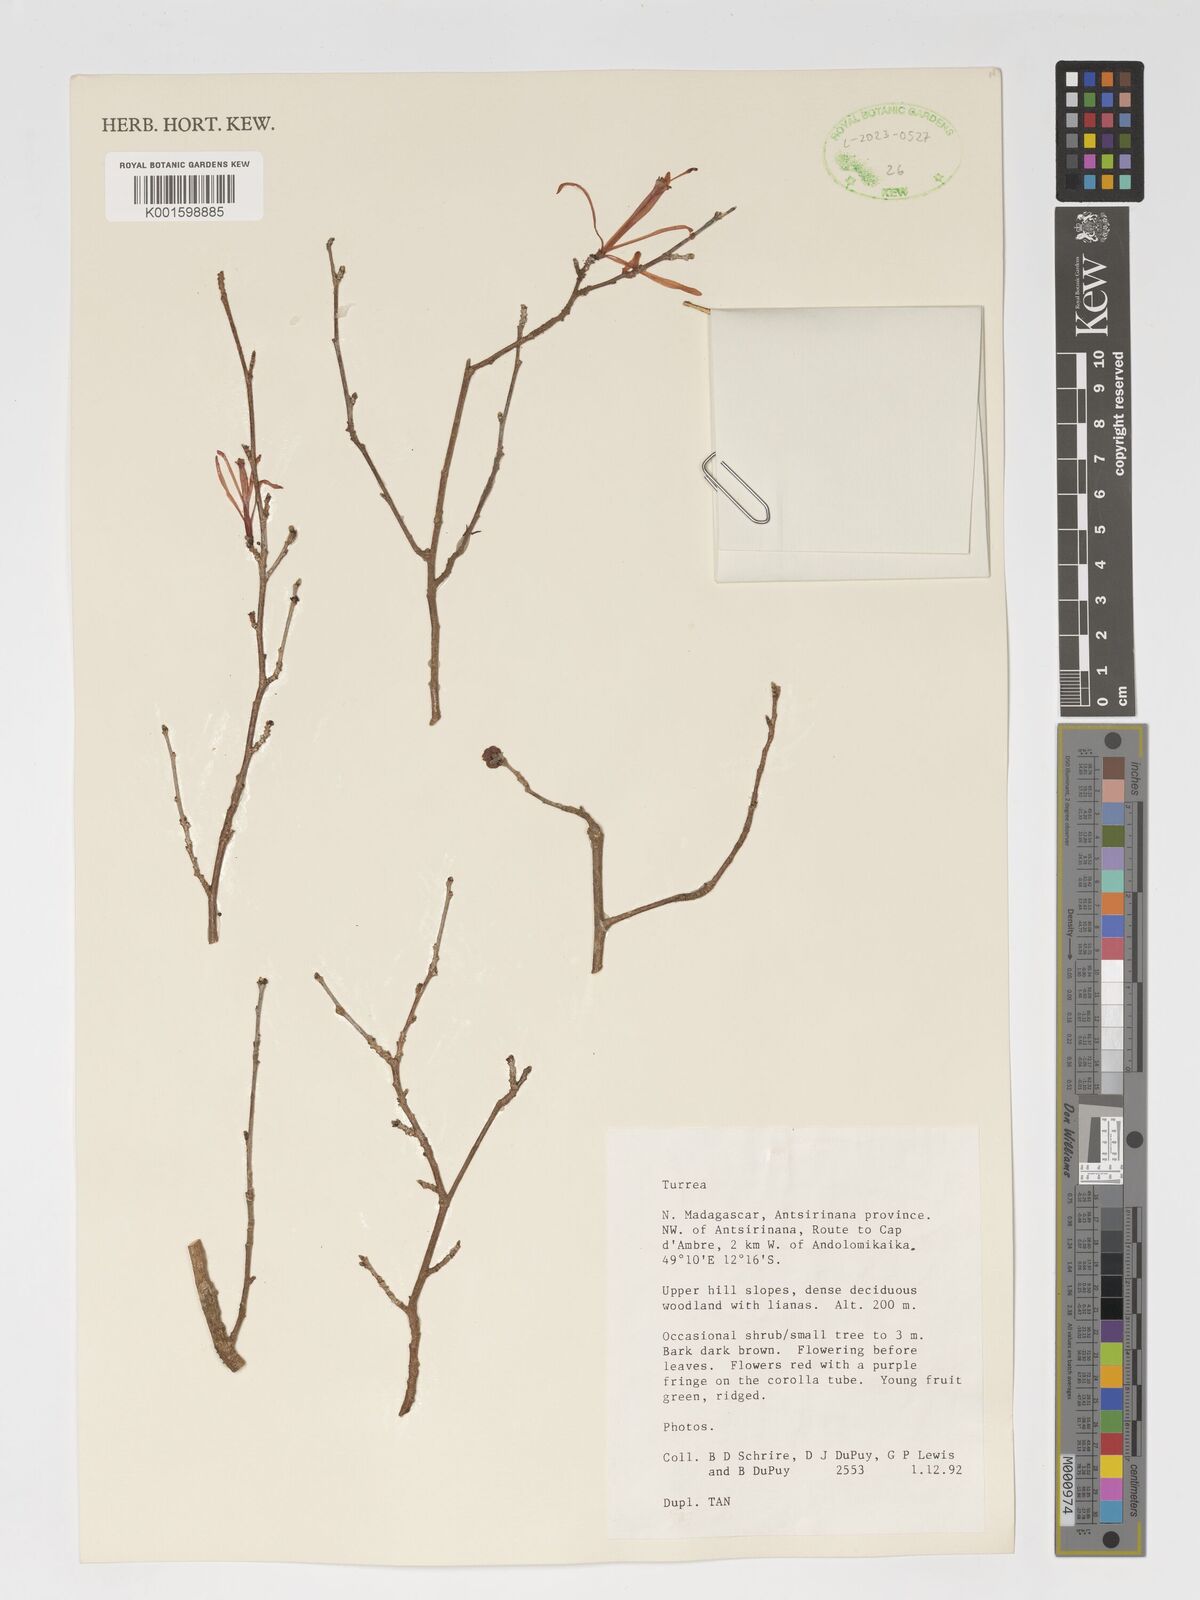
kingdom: Plantae
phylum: Tracheophyta
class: Magnoliopsida
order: Sapindales
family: Meliaceae
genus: Turraea
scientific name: Turraea
